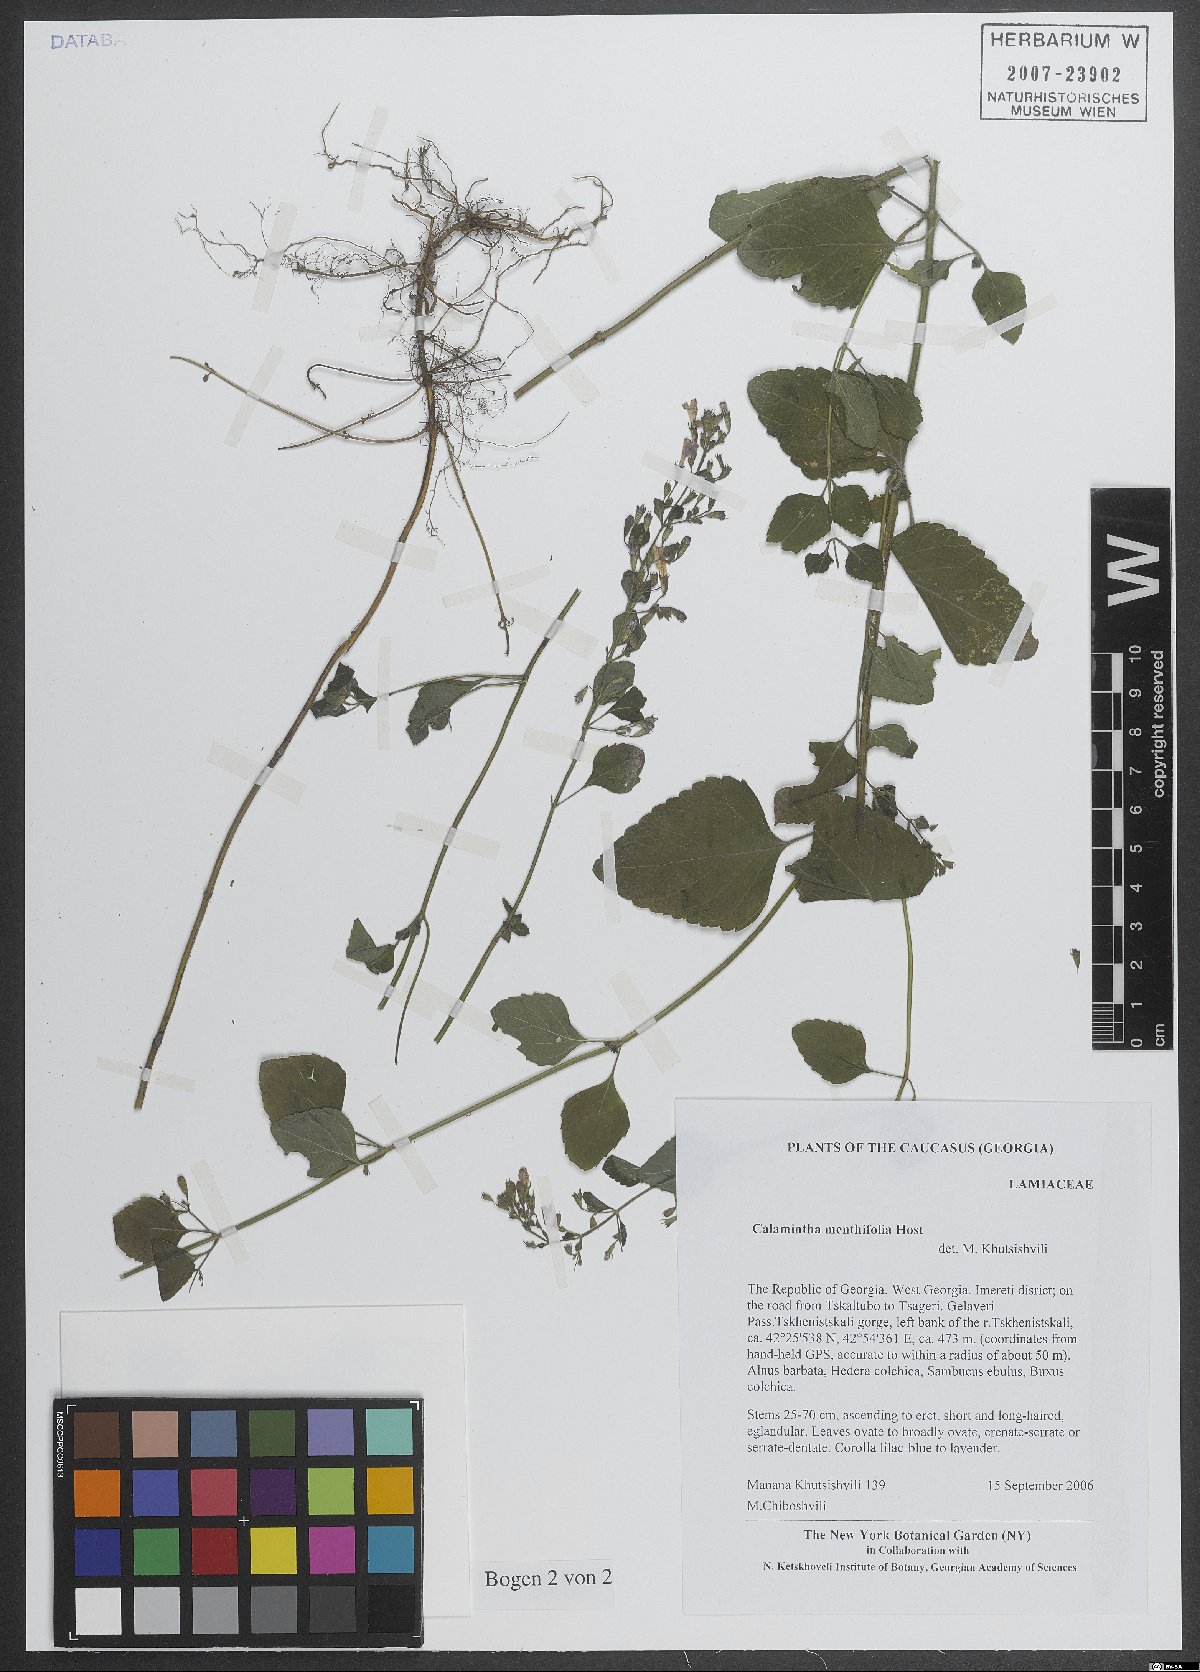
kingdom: Plantae
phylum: Tracheophyta
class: Magnoliopsida
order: Lamiales
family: Lamiaceae
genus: Clinopodium
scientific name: Clinopodium menthifolium
